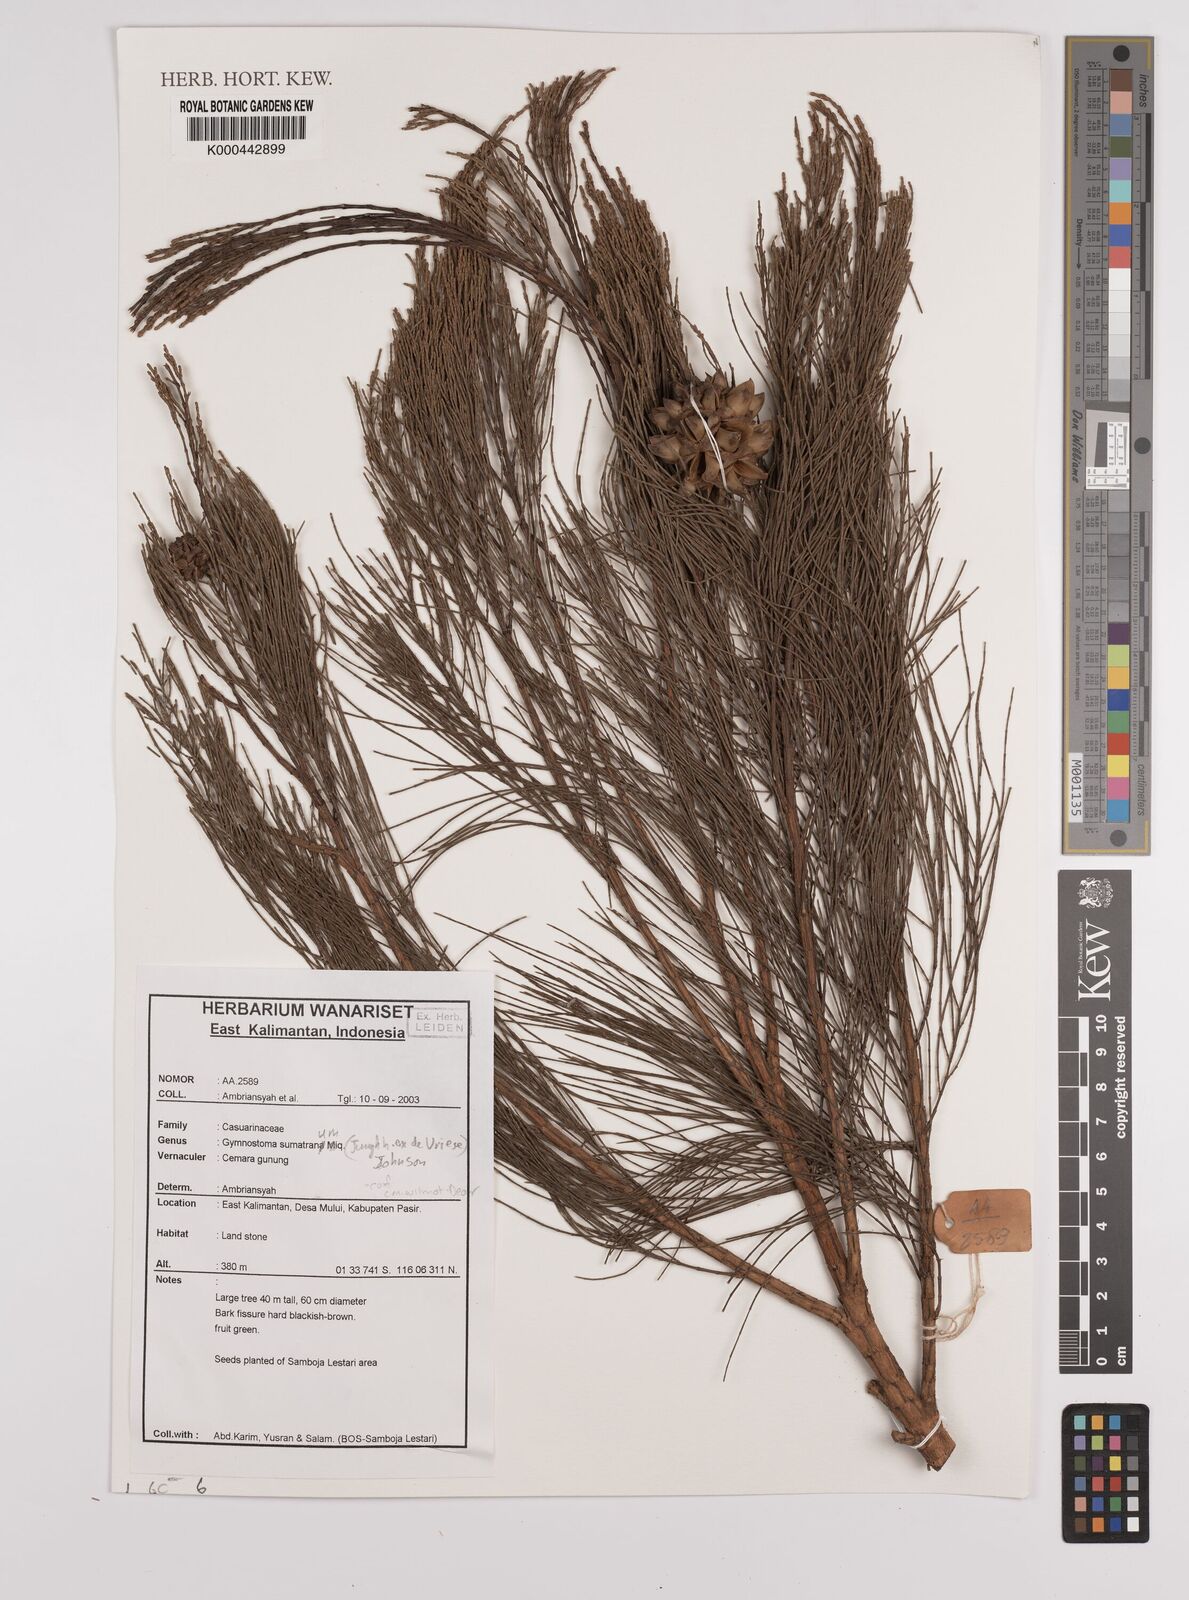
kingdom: Plantae
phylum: Tracheophyta
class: Magnoliopsida
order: Fagales
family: Casuarinaceae
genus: Gymnostoma
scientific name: Gymnostoma sumatranum
